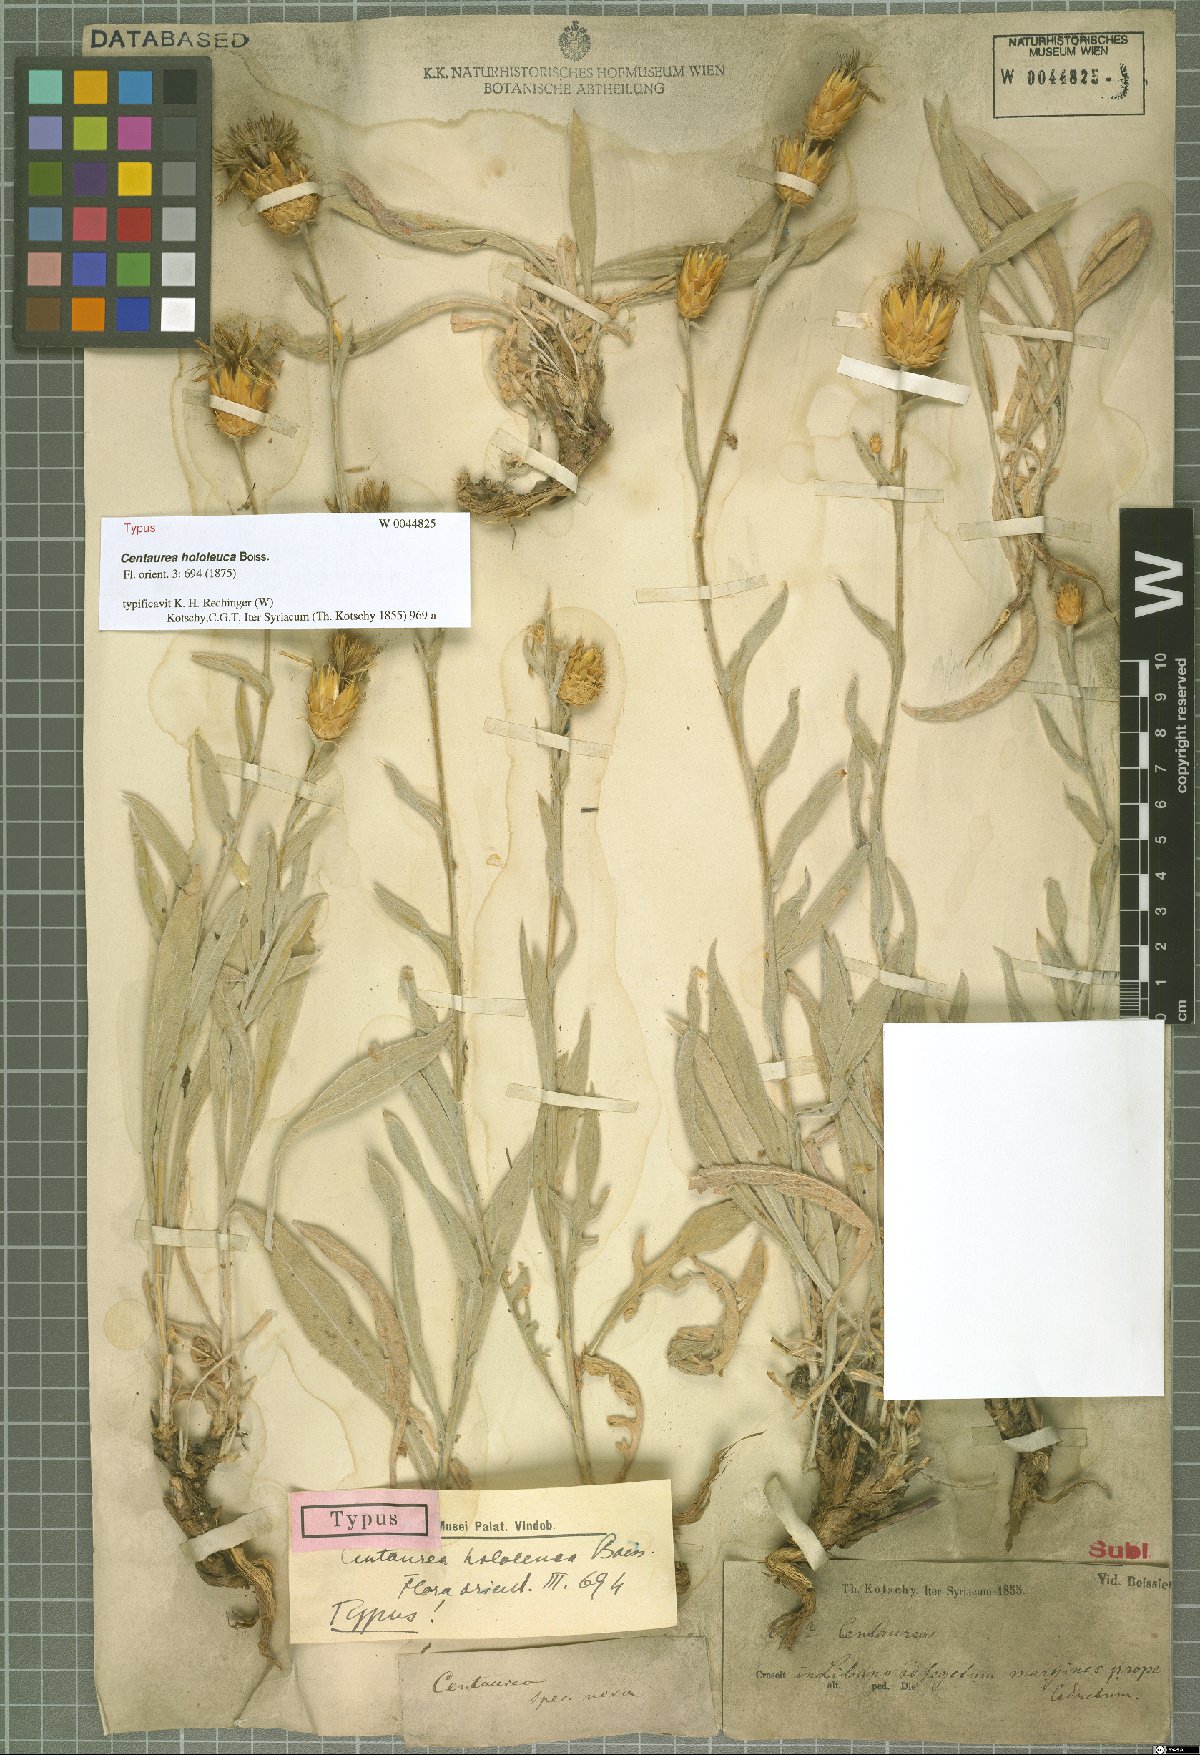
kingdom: Plantae
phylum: Tracheophyta
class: Magnoliopsida
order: Asterales
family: Asteraceae
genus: Centaurea
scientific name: Centaurea hololeuca
